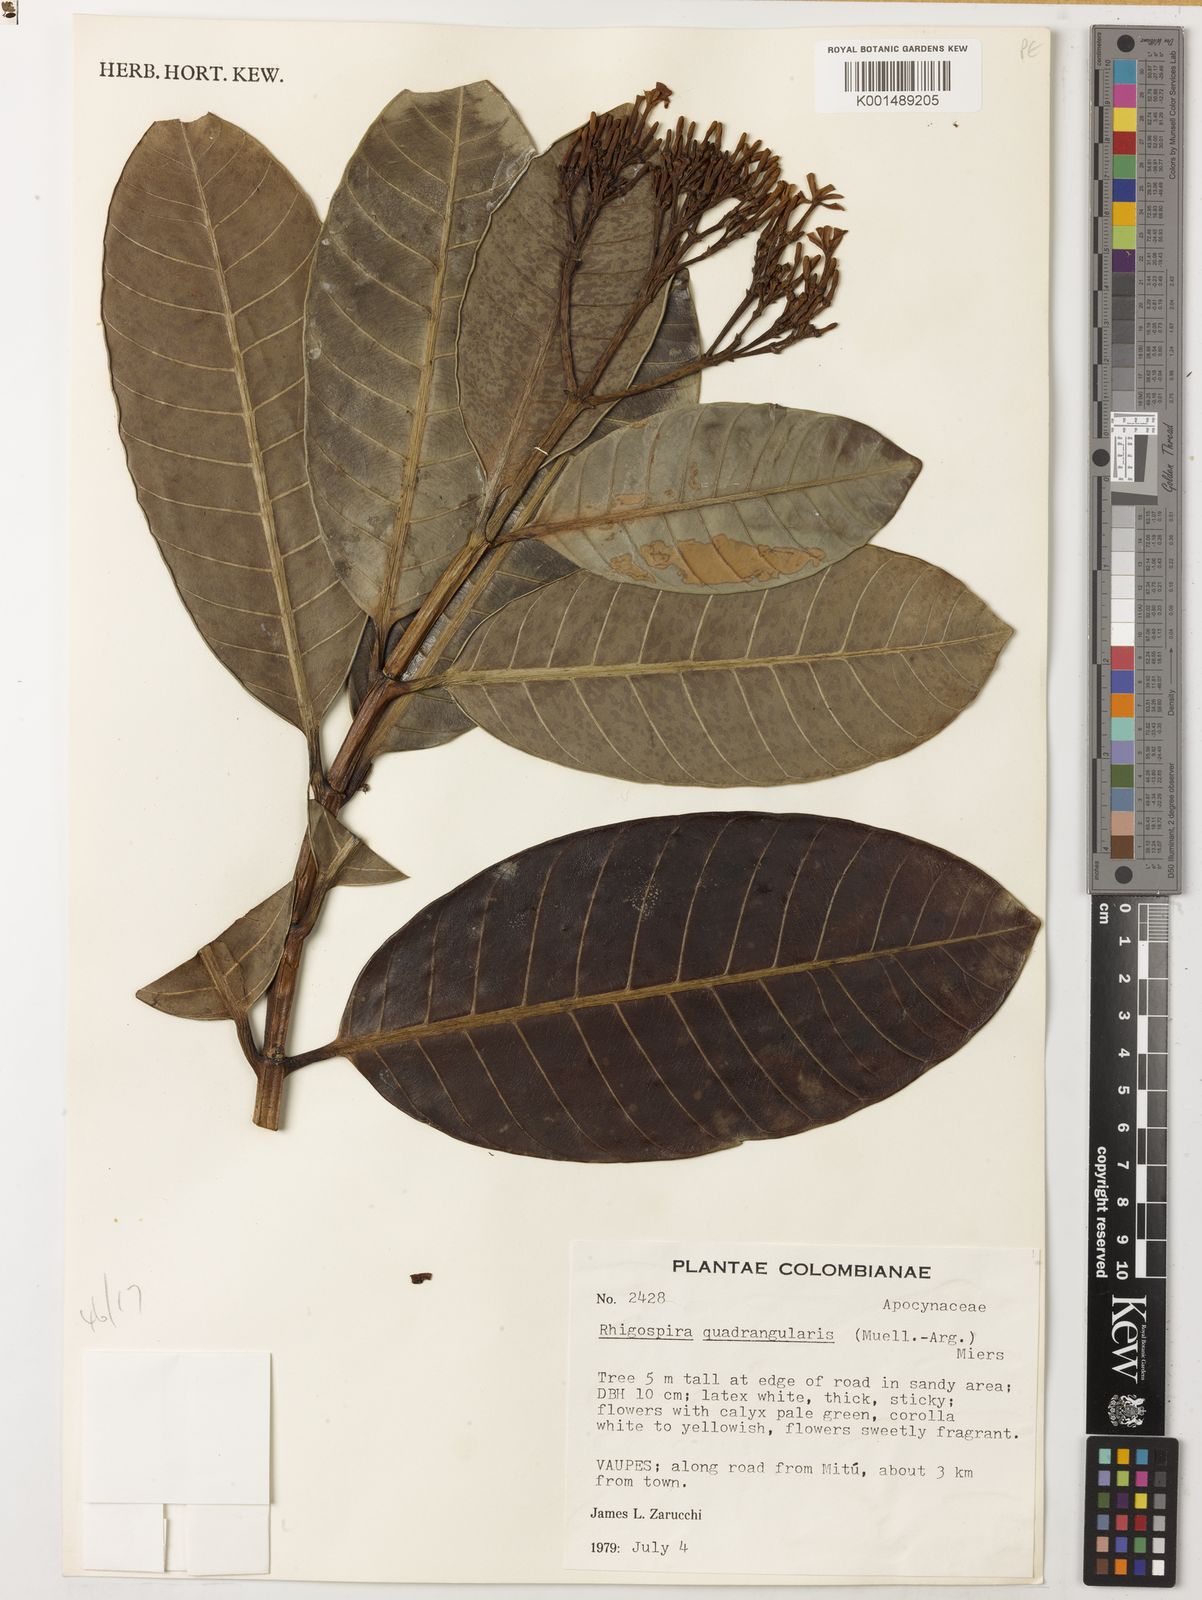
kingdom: Plantae
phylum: Tracheophyta
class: Magnoliopsida
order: Gentianales
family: Apocynaceae
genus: Rhigospira
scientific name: Rhigospira quadrangularis
